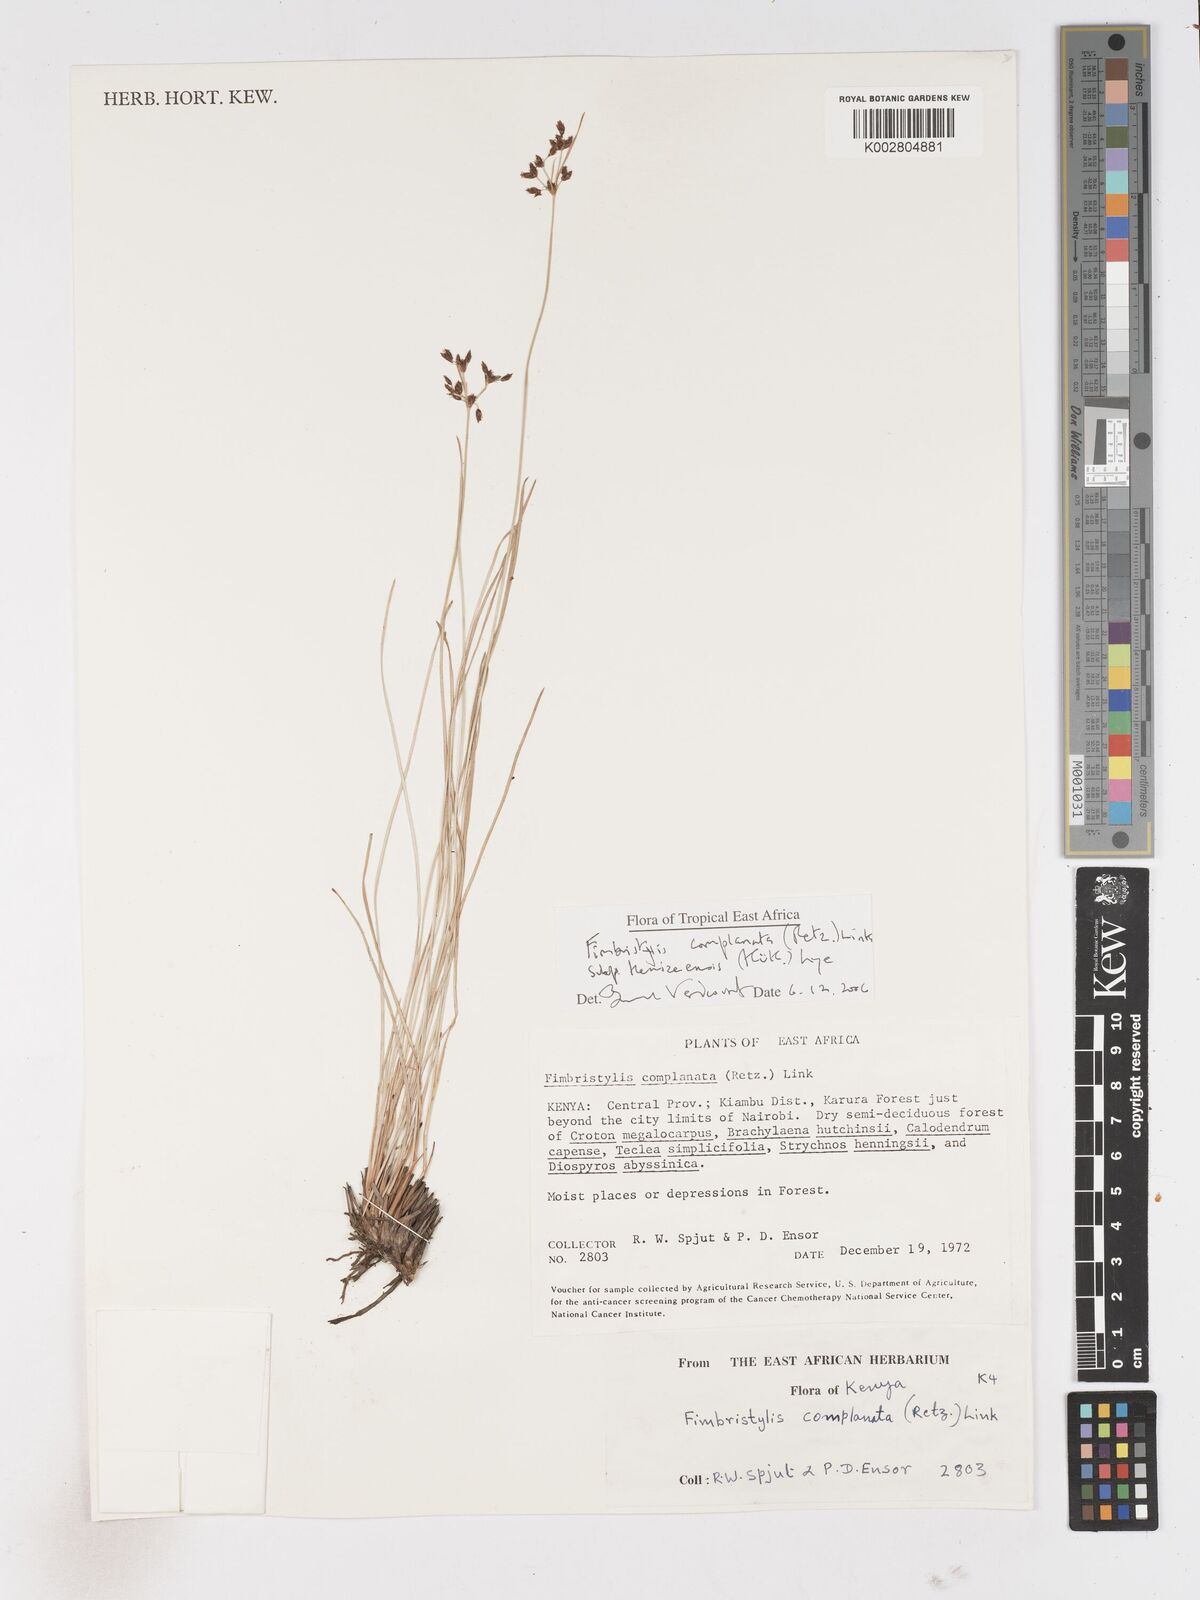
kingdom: Plantae
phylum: Tracheophyta
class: Liliopsida
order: Poales
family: Cyperaceae
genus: Fimbristylis
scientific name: Fimbristylis complanata
